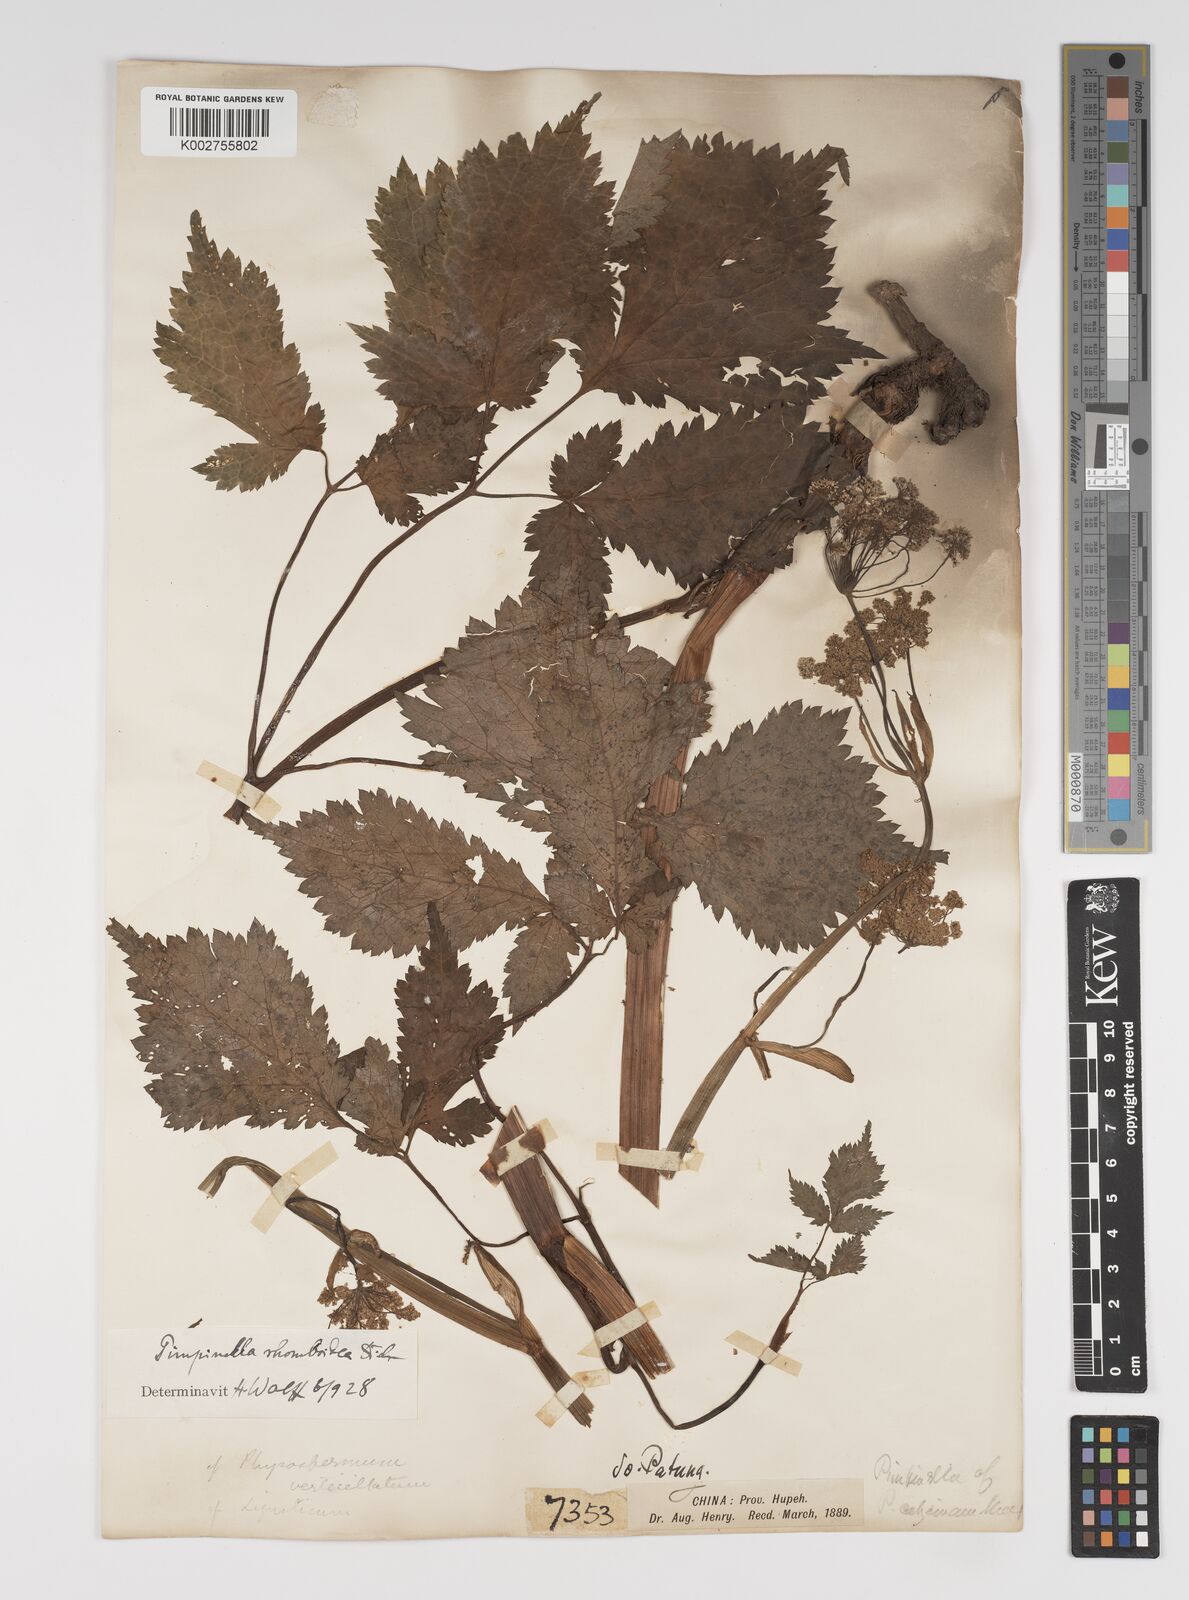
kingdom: Plantae
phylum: Tracheophyta
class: Magnoliopsida
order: Apiales
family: Apiaceae
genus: Pimpinella
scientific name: Pimpinella rhomboidea
